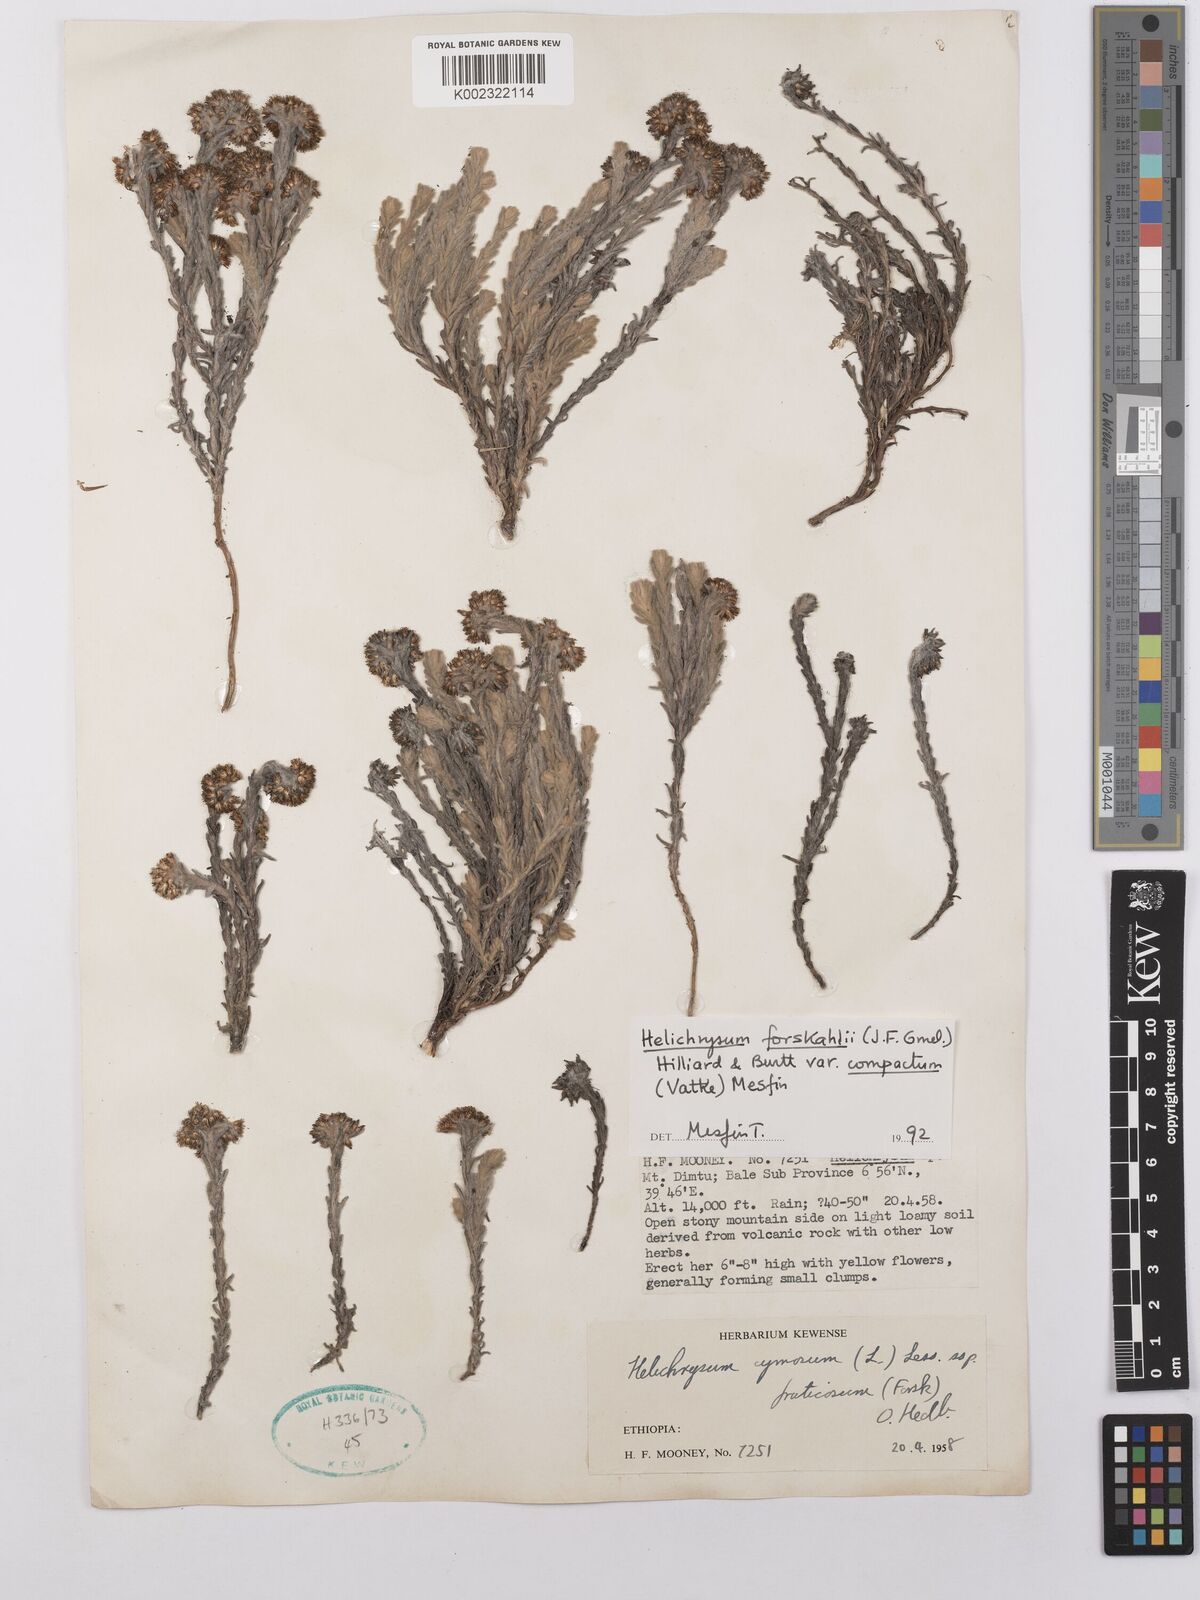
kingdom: Plantae
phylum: Tracheophyta
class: Magnoliopsida
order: Asterales
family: Asteraceae
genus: Helichrysum
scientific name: Helichrysum forskahlii
